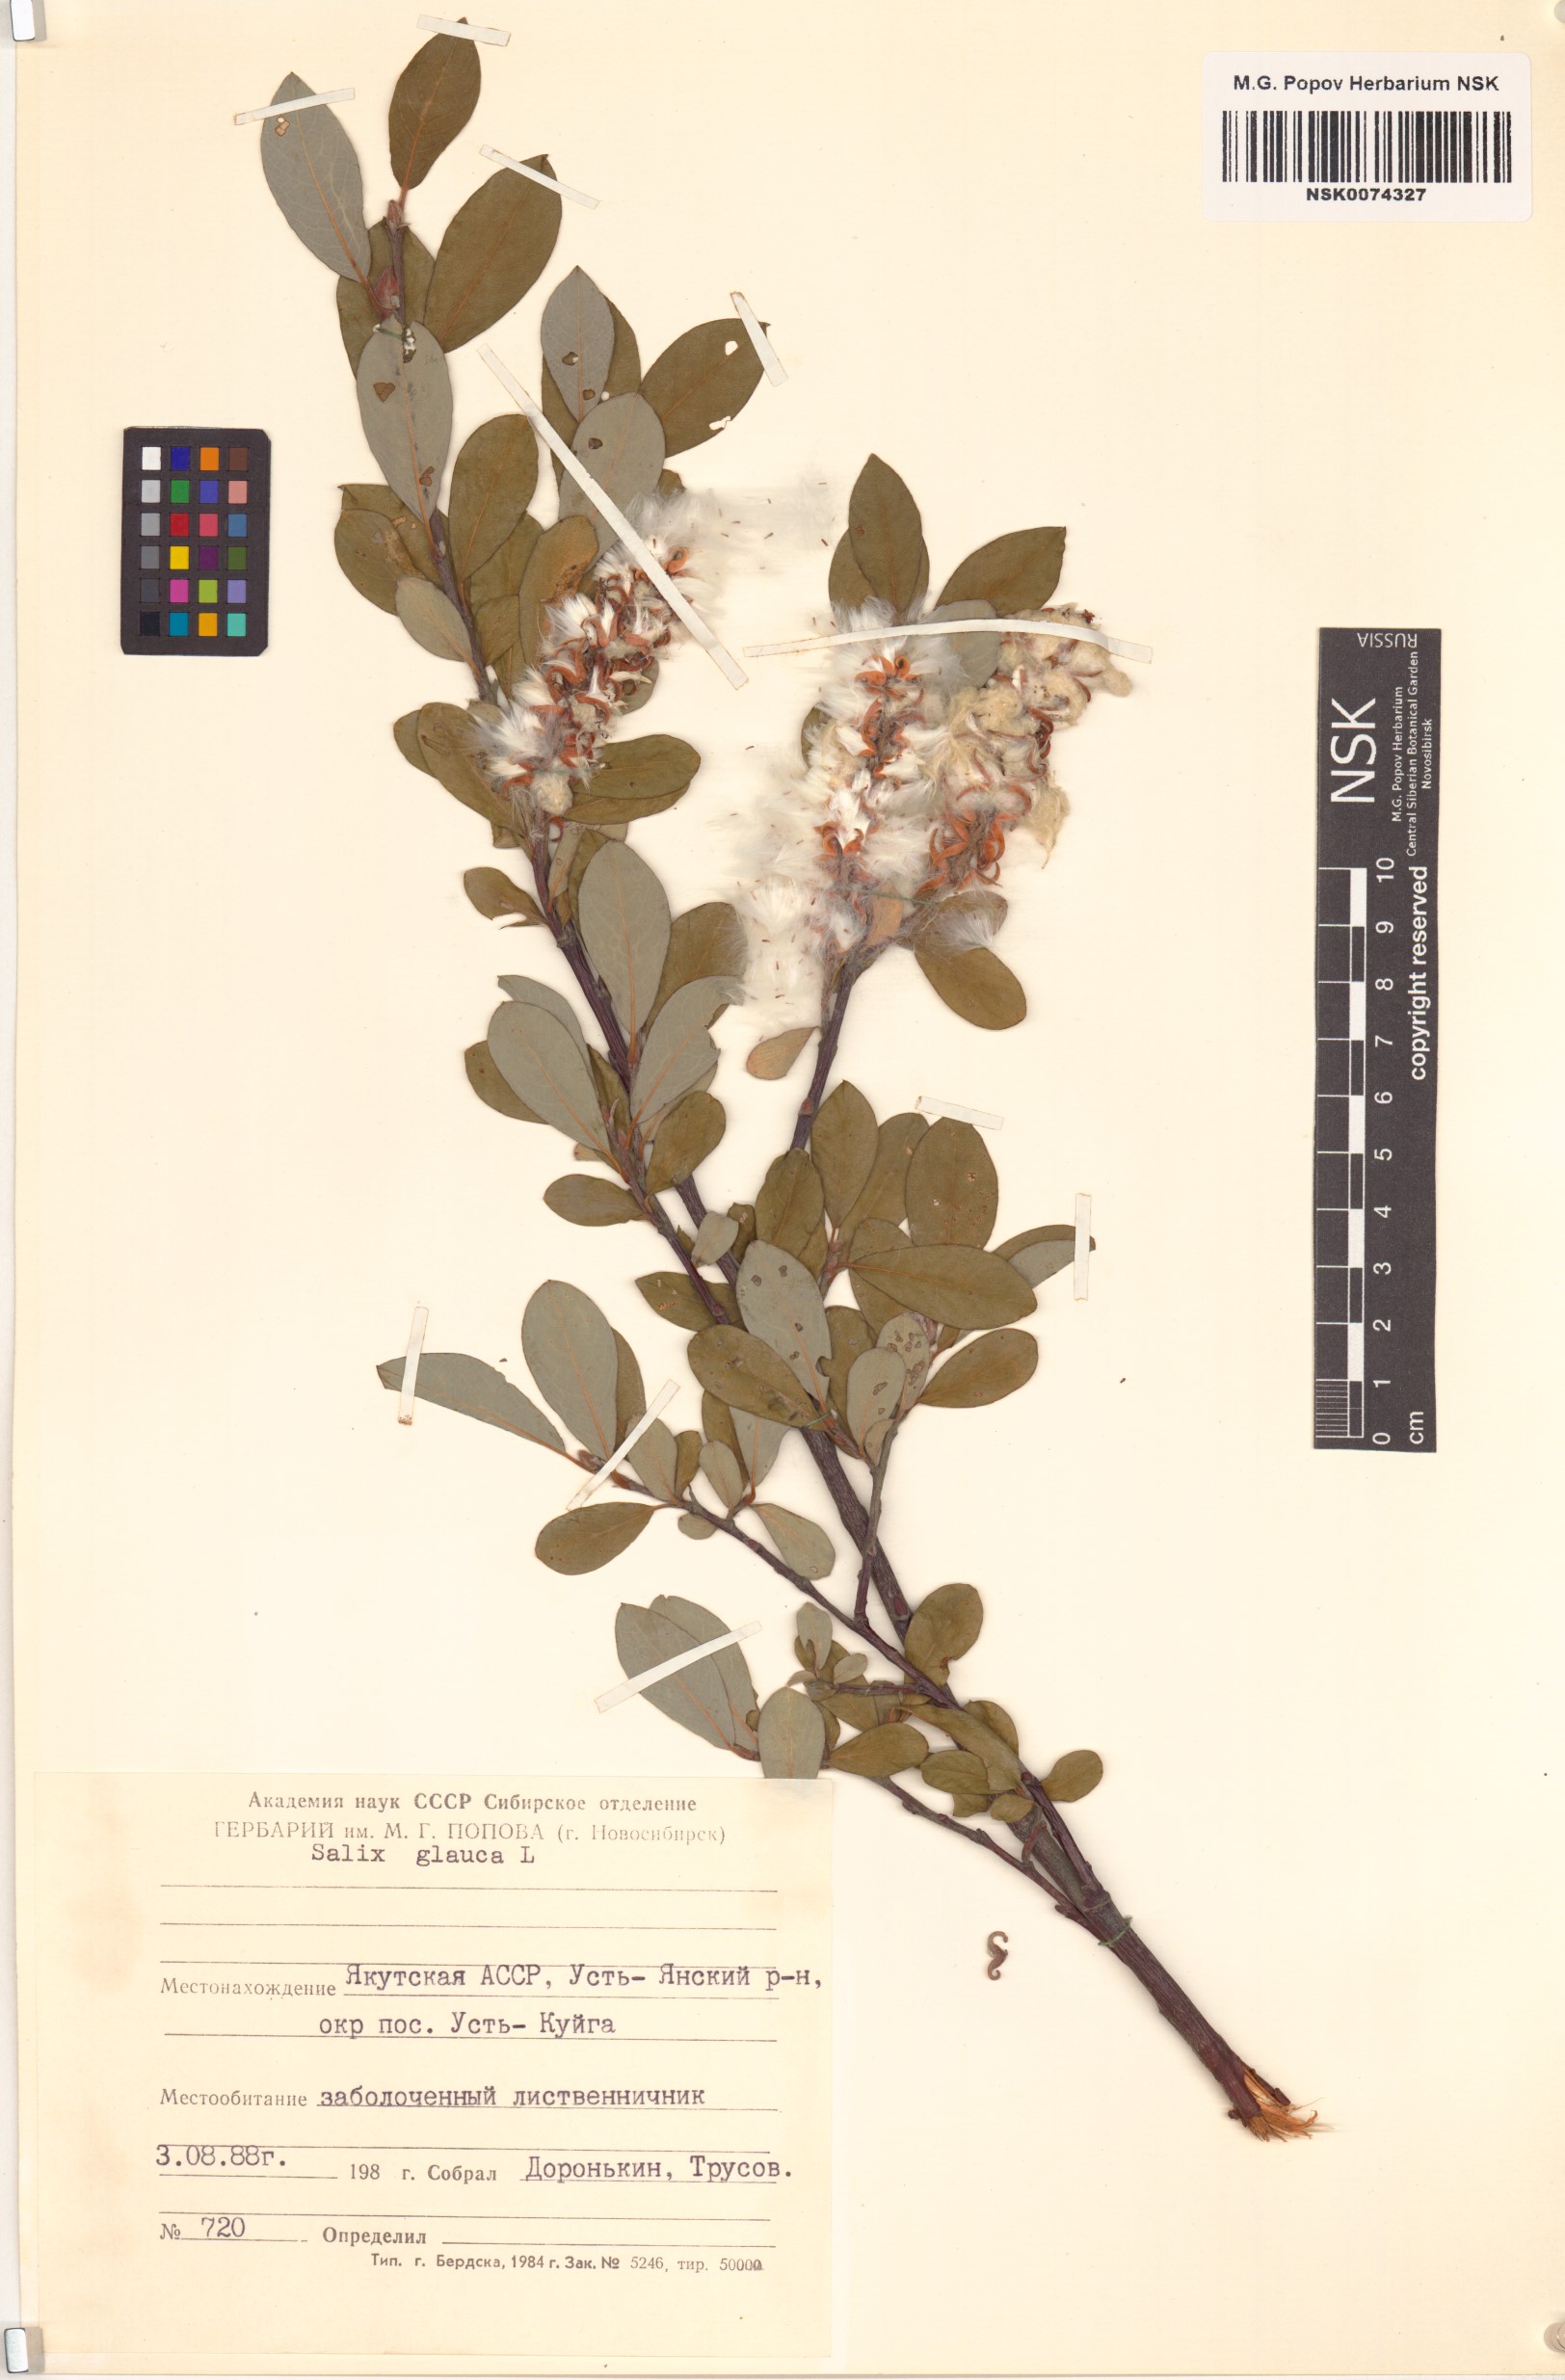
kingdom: Plantae
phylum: Tracheophyta
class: Magnoliopsida
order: Malpighiales
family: Salicaceae
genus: Salix
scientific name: Salix glauca
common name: Glaucous willow
